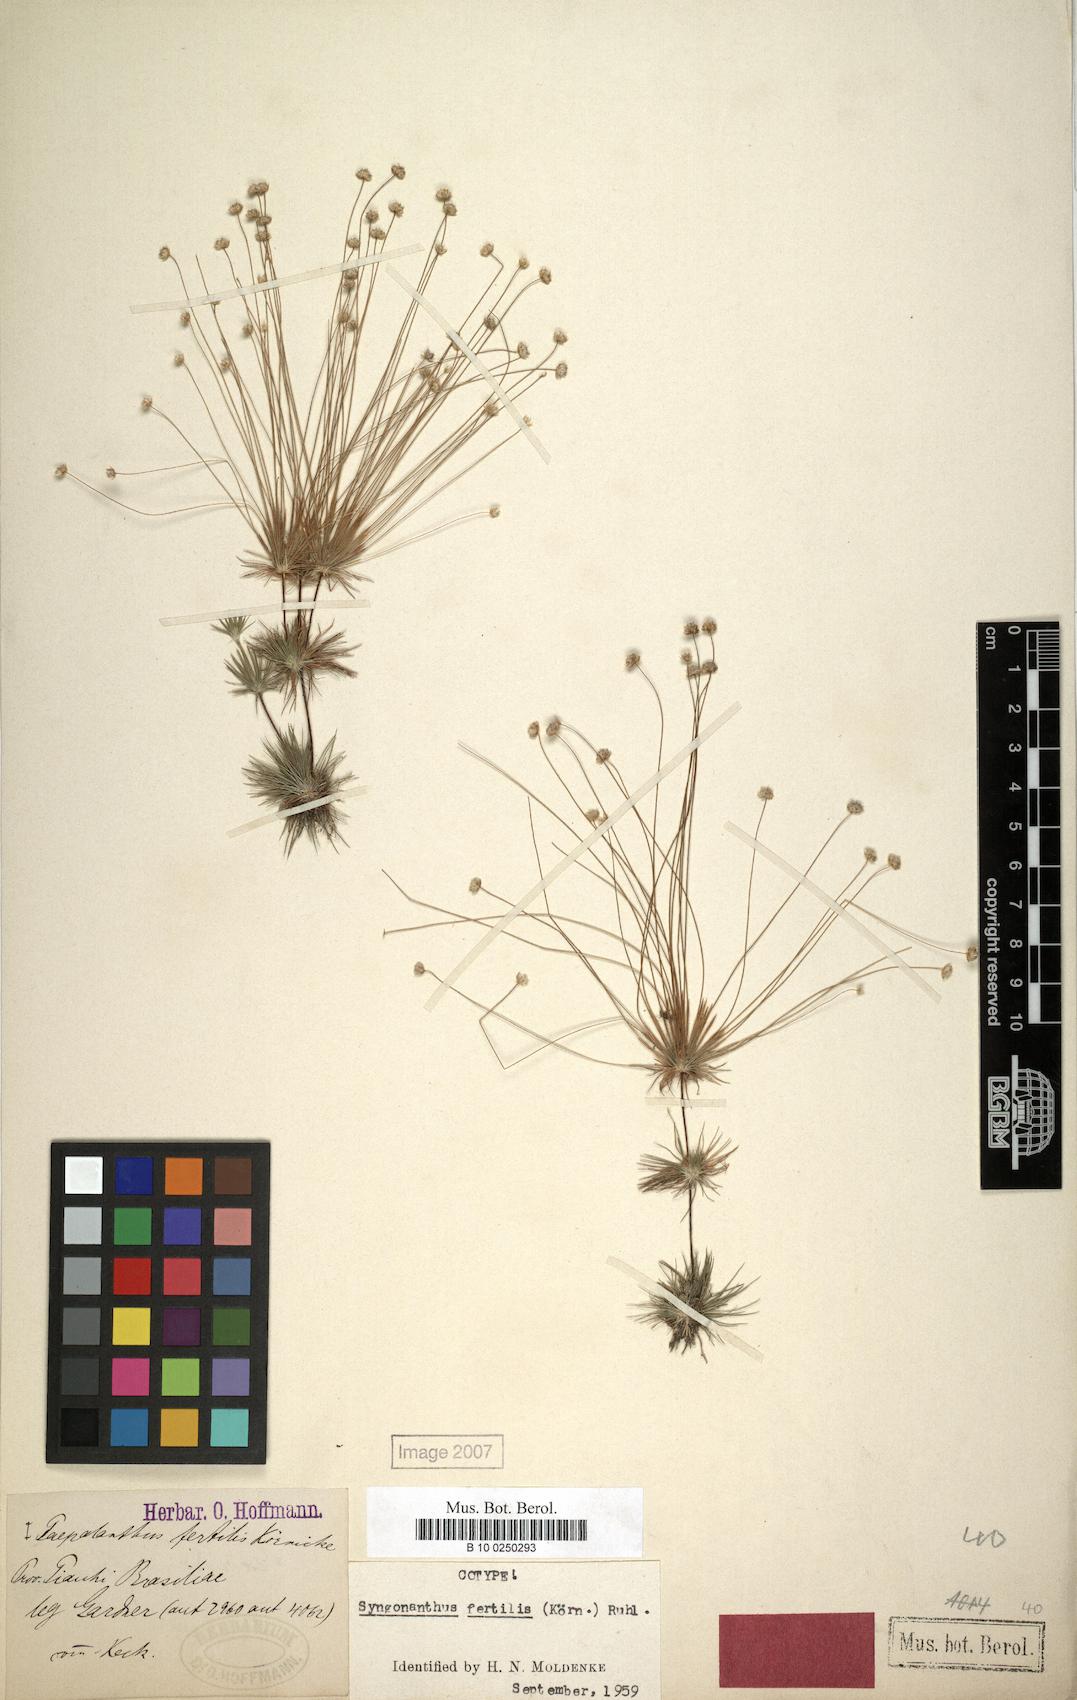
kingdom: Plantae
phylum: Tracheophyta
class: Liliopsida
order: Poales
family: Eriocaulaceae
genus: Syngonanthus
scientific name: Syngonanthus humboldtii
